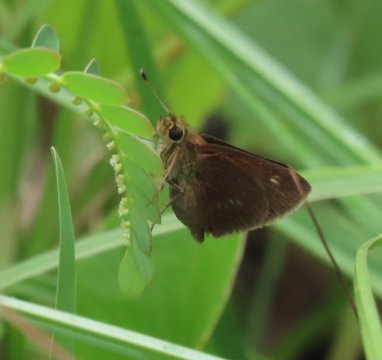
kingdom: Animalia
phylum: Arthropoda
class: Insecta
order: Lepidoptera
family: Hesperiidae
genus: Polites
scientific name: Polites egeremet
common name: Northern Broken-Dash
